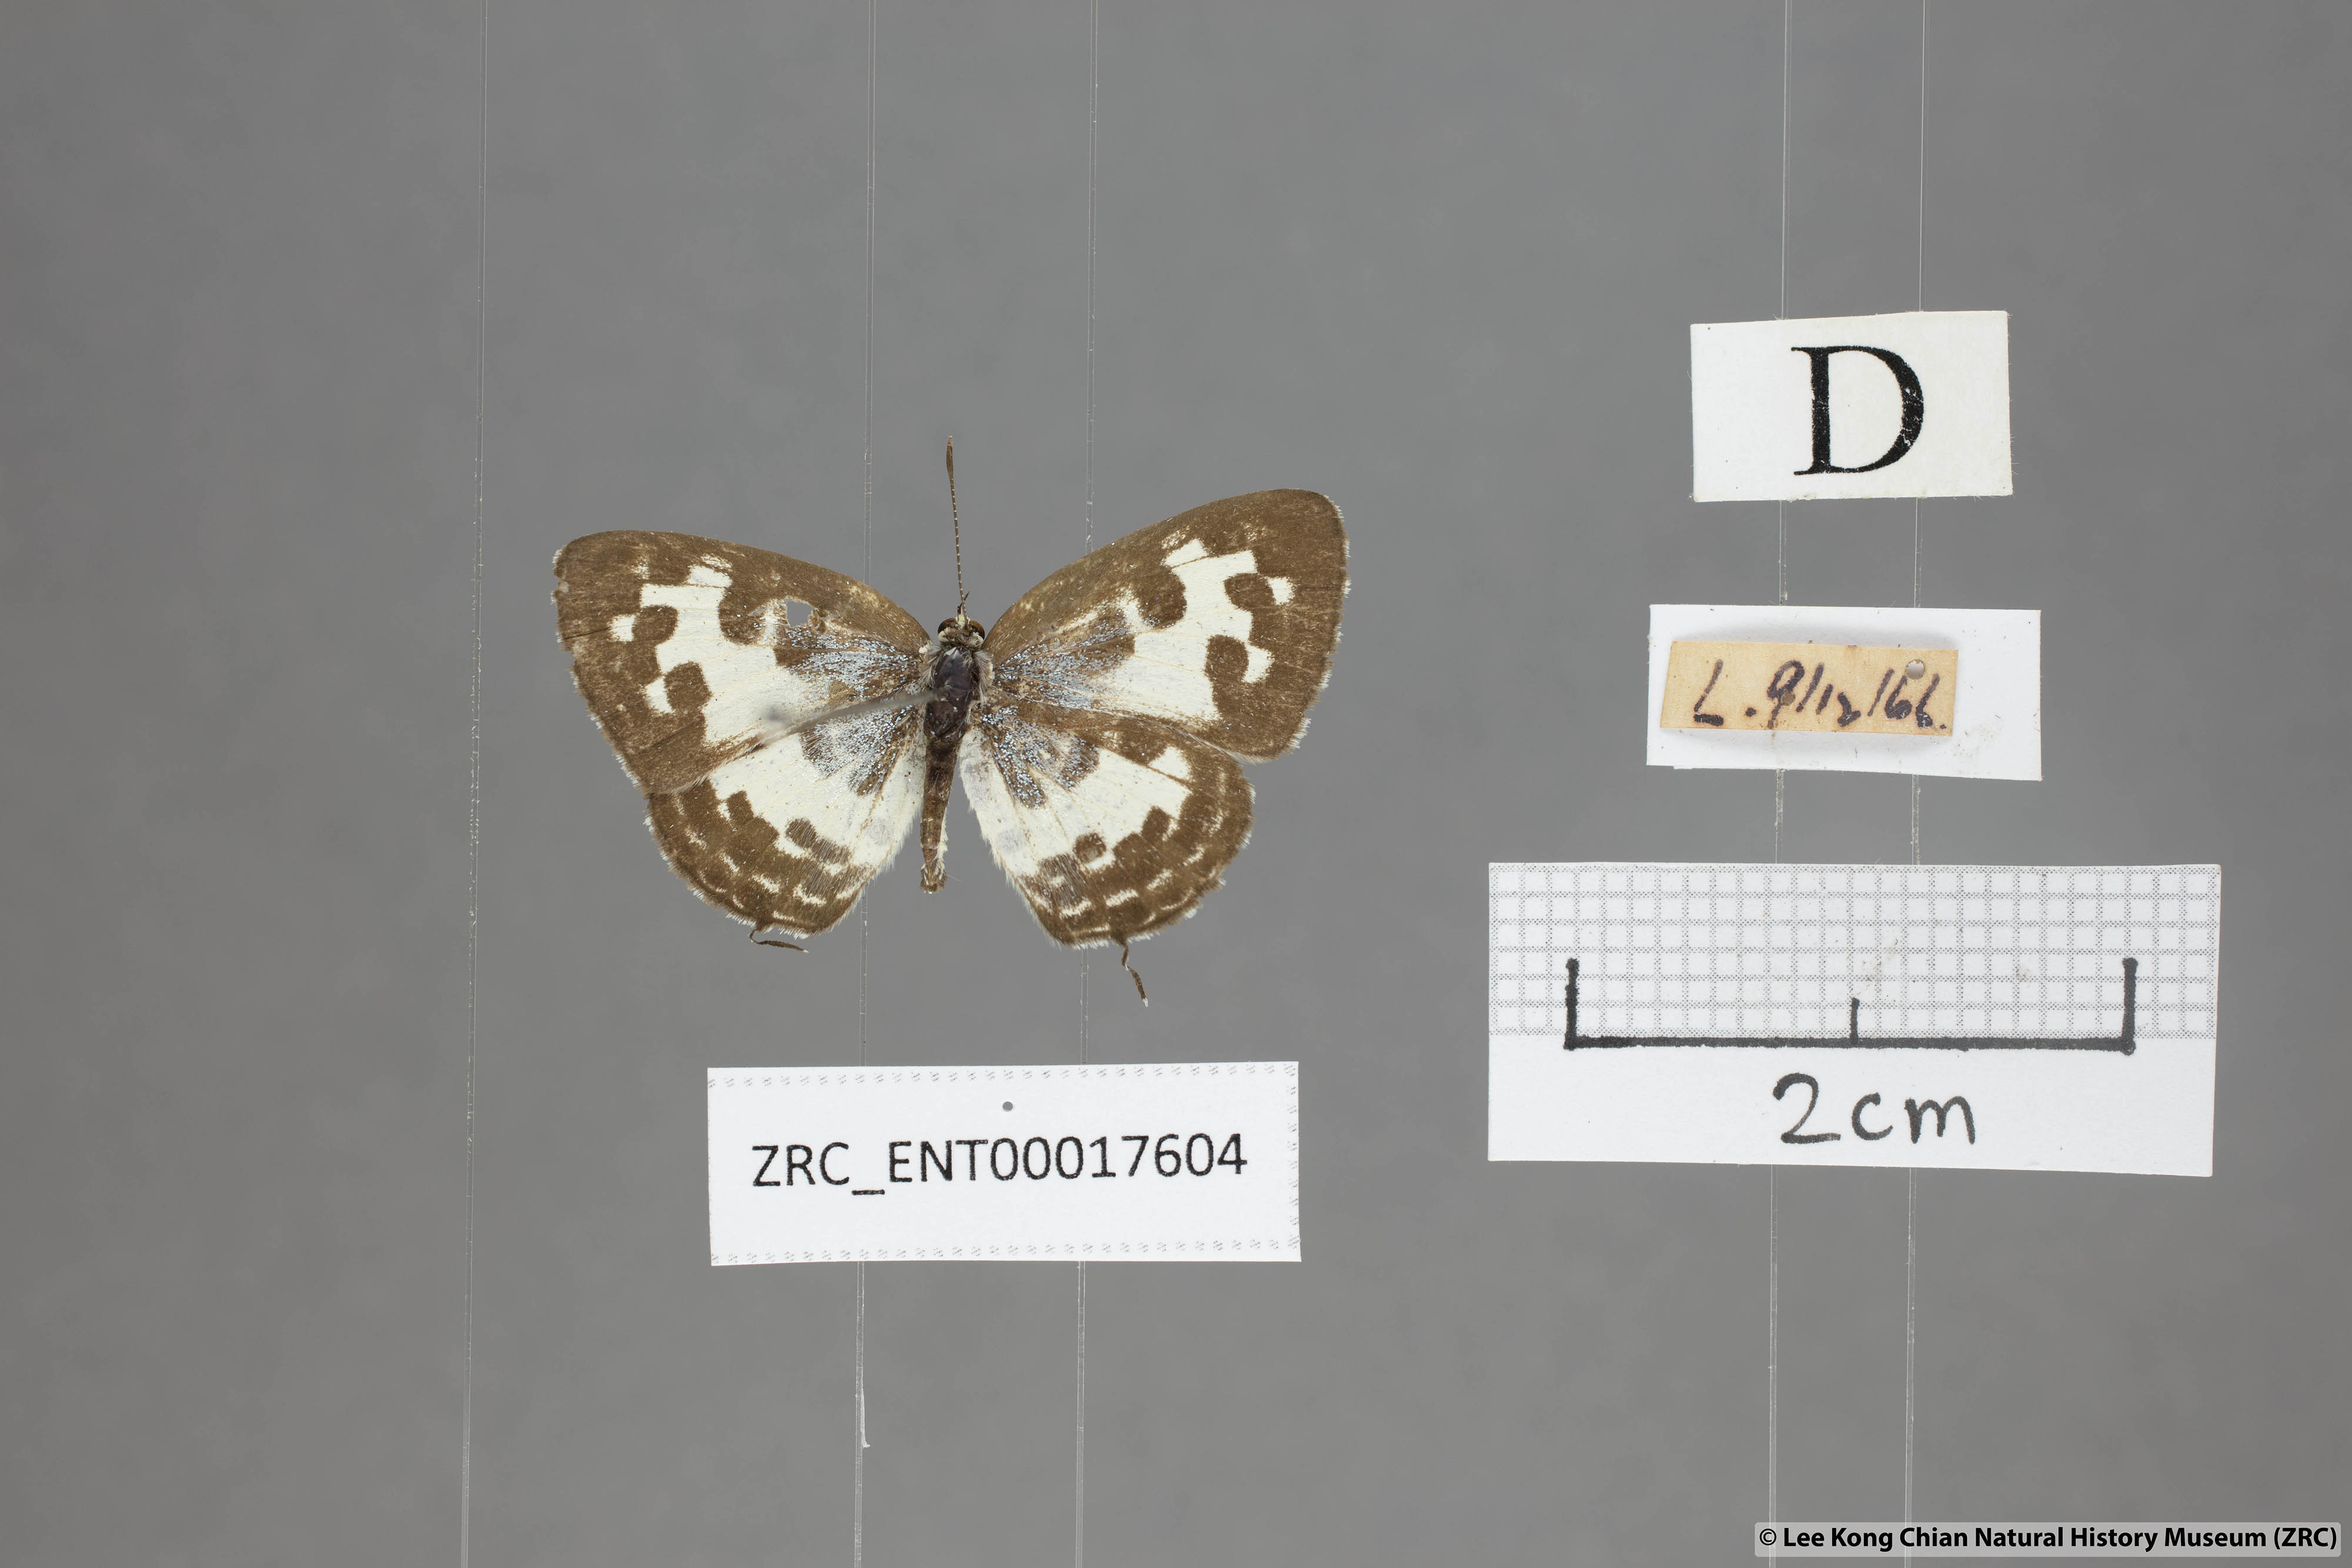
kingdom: Animalia
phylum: Arthropoda
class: Insecta
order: Lepidoptera
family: Lycaenidae
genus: Castalius
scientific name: Castalius rosimon
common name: Common pierrot
